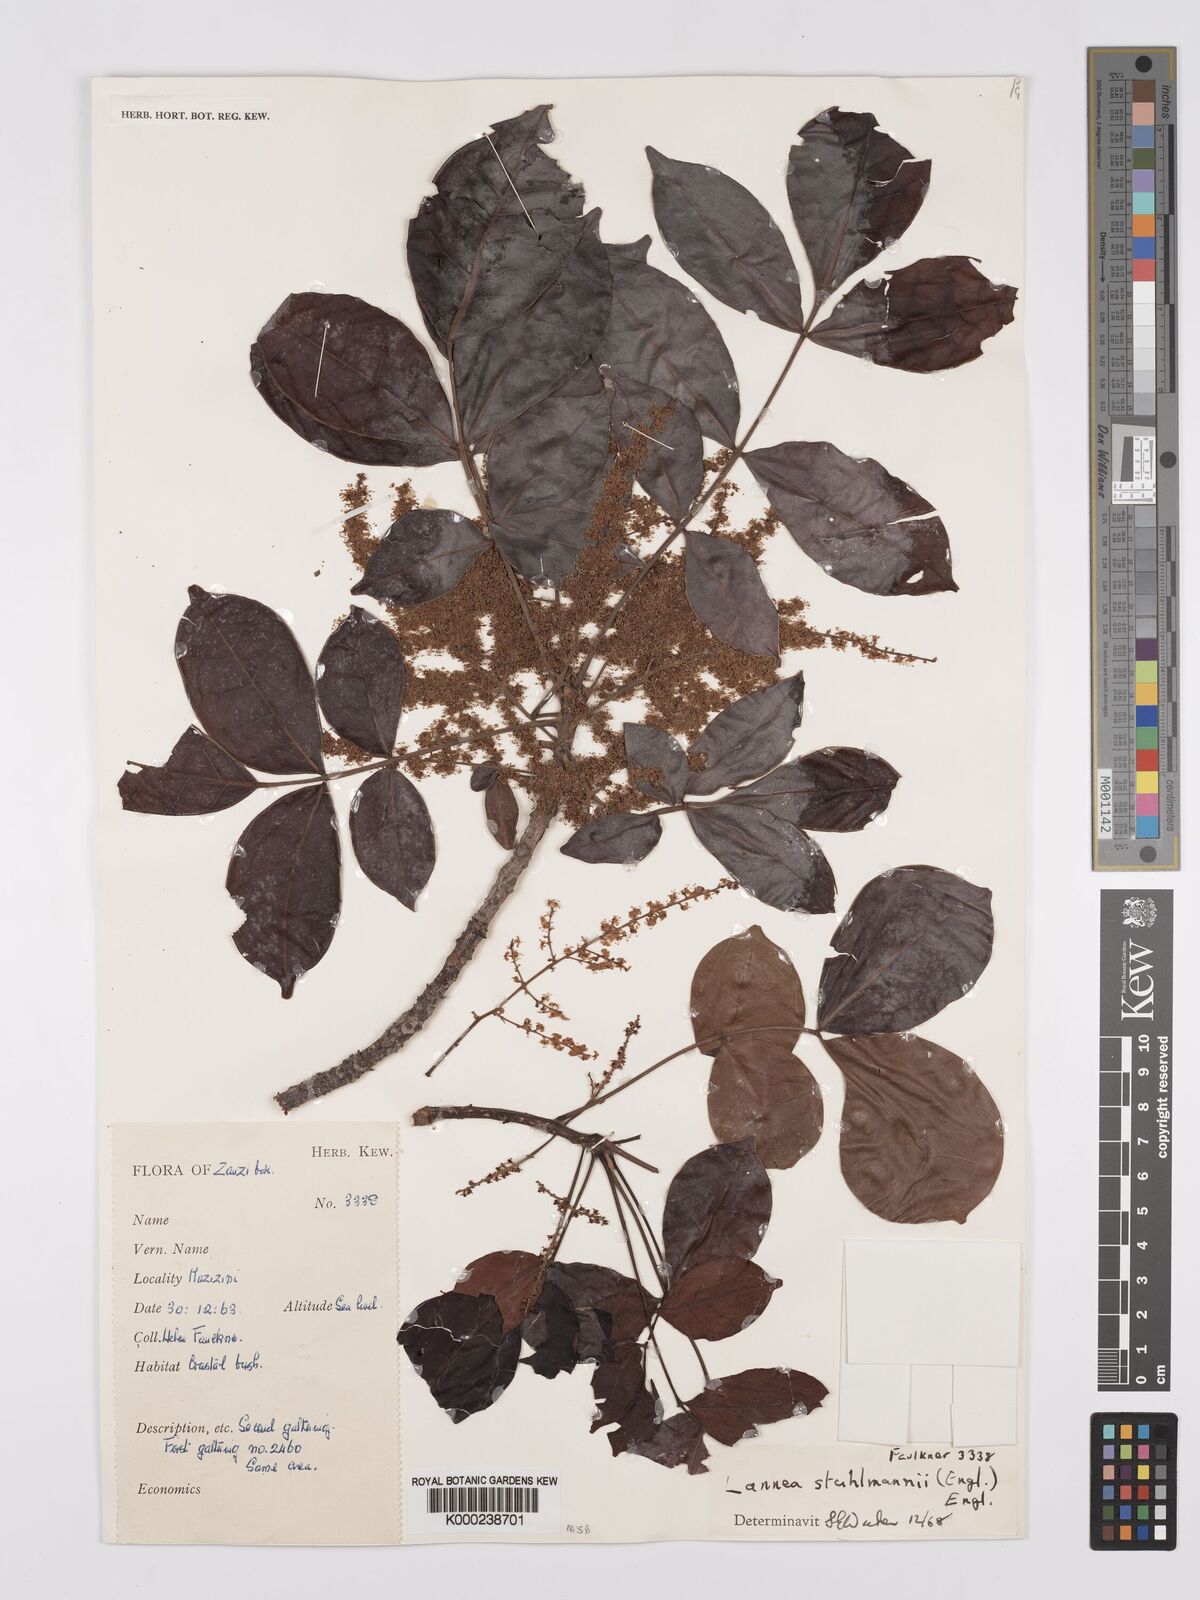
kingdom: Plantae
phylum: Tracheophyta
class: Magnoliopsida
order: Sapindales
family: Anacardiaceae
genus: Lannea
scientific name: Lannea schweinfurthii
